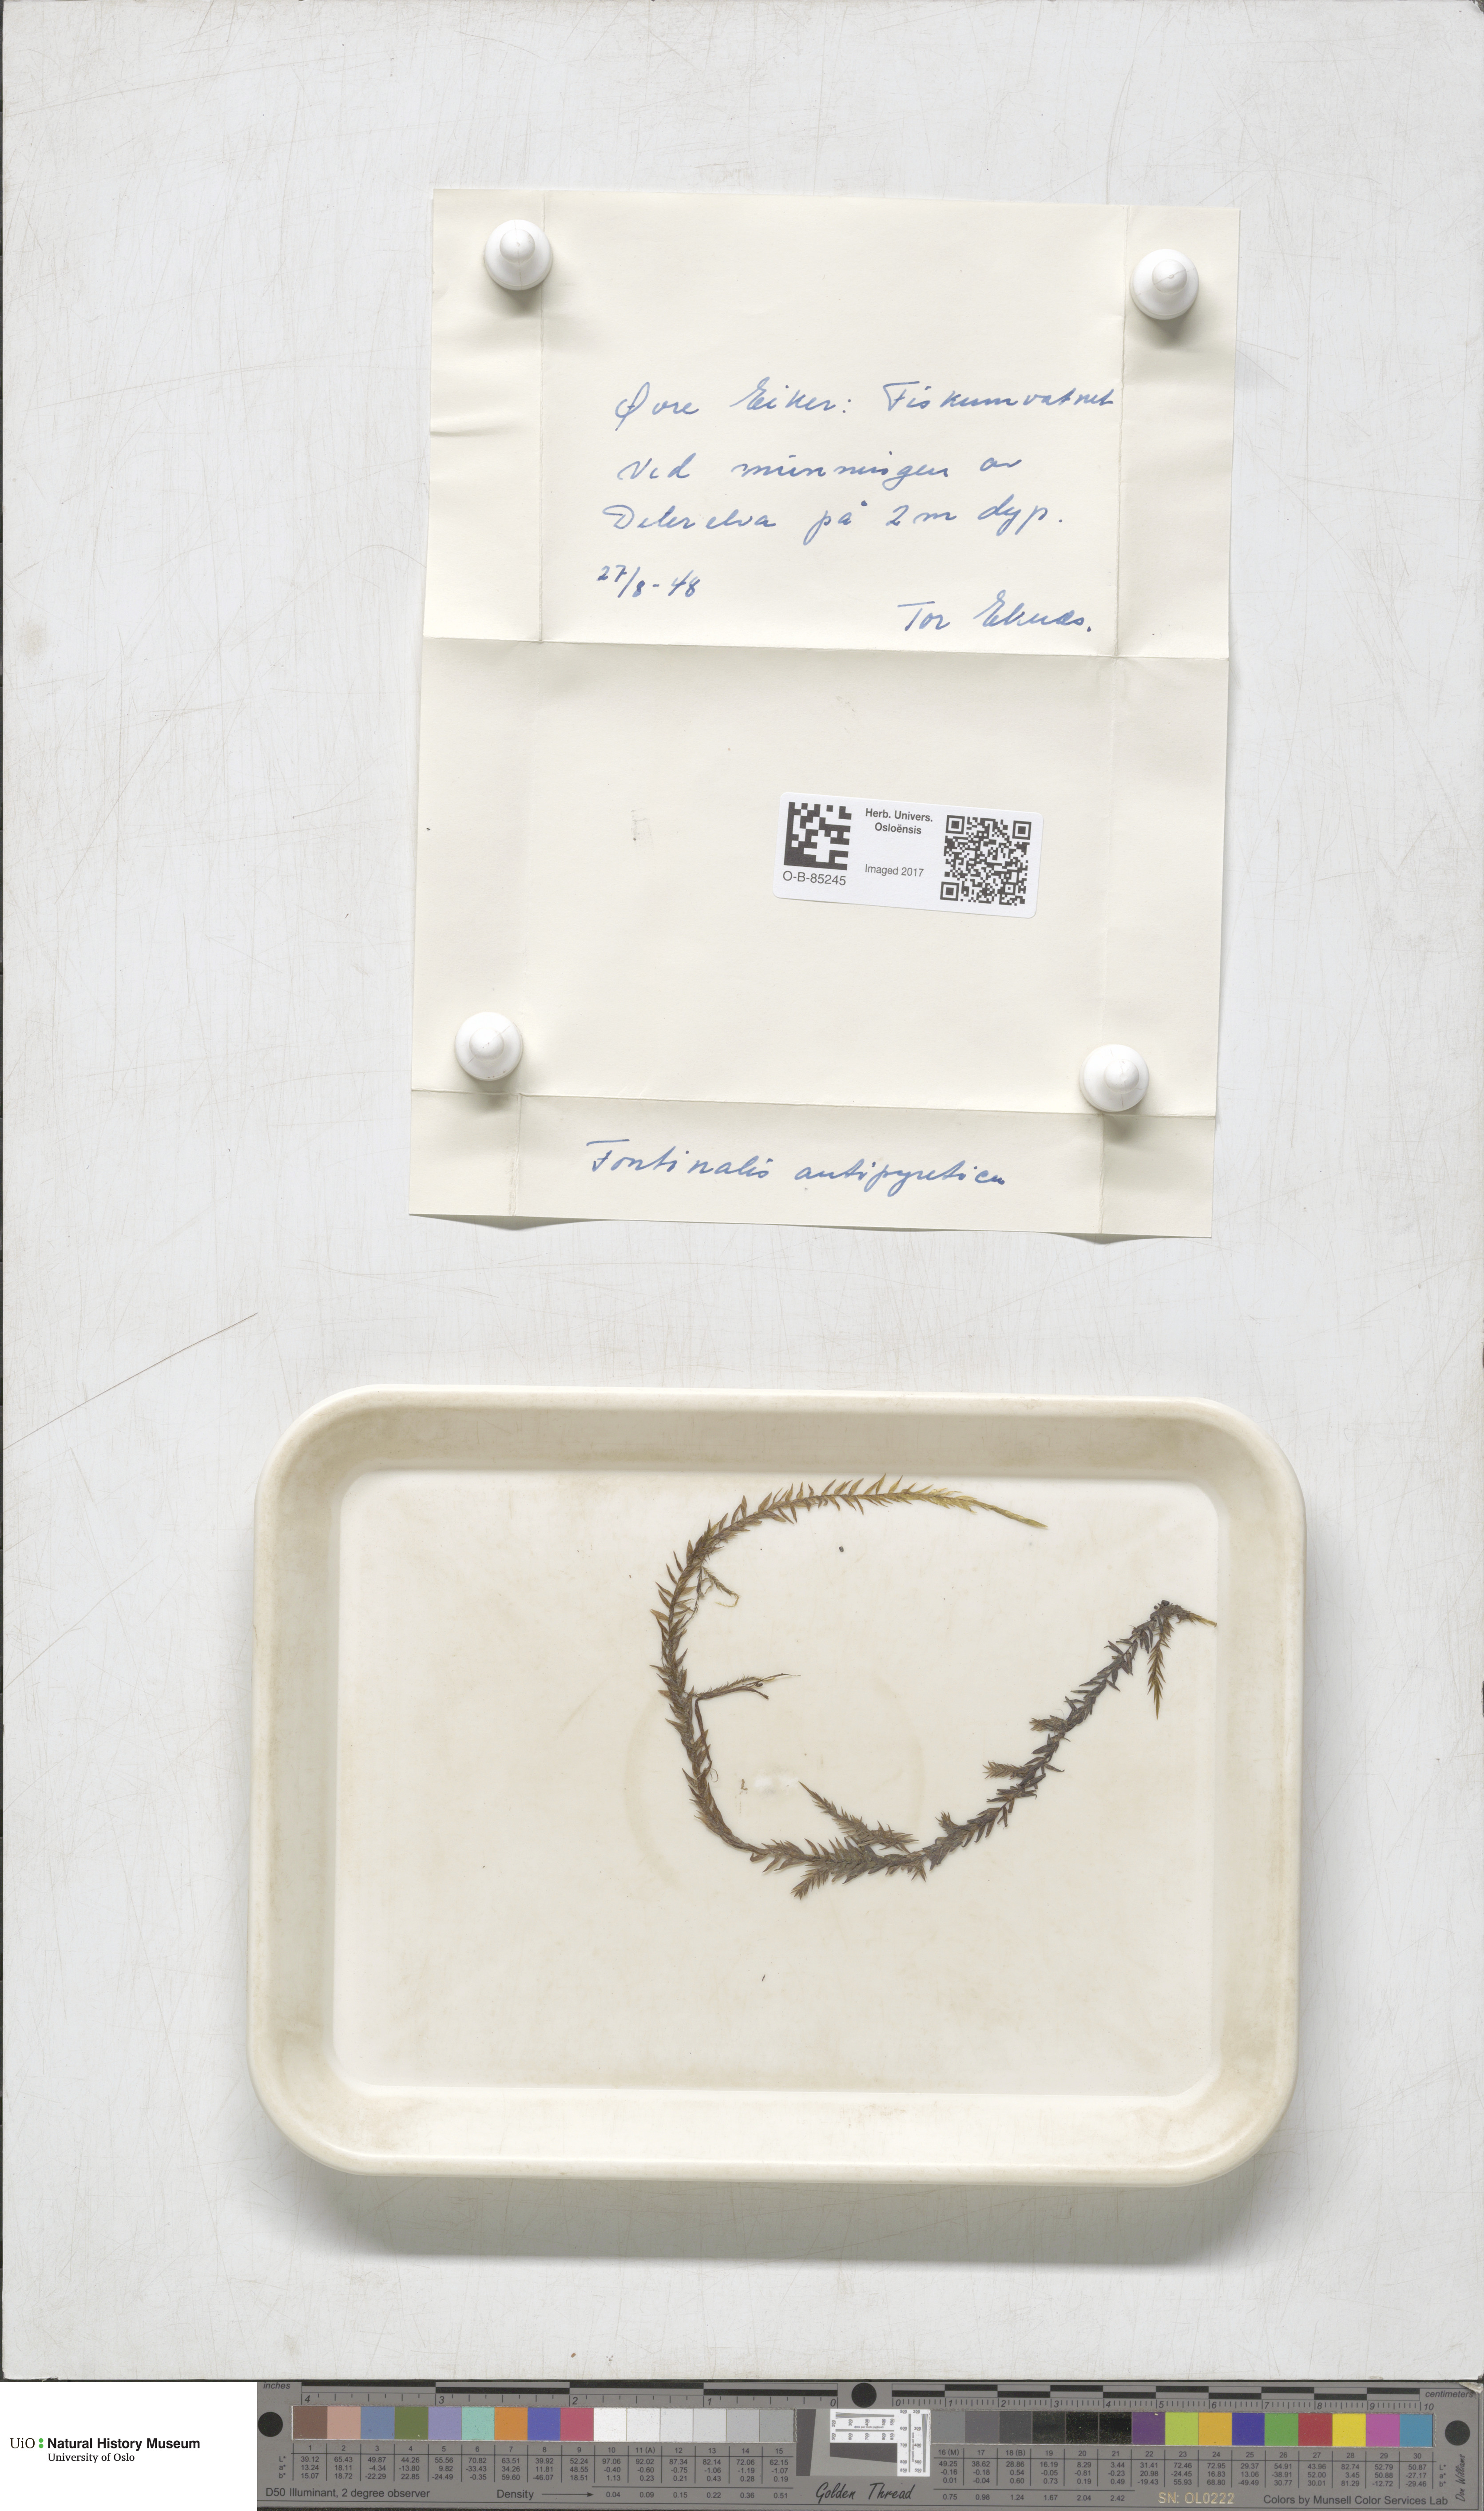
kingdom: Plantae
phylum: Bryophyta
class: Bryopsida
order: Hypnales
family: Fontinalaceae
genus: Fontinalis
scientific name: Fontinalis antipyretica
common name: Greater water-moss
